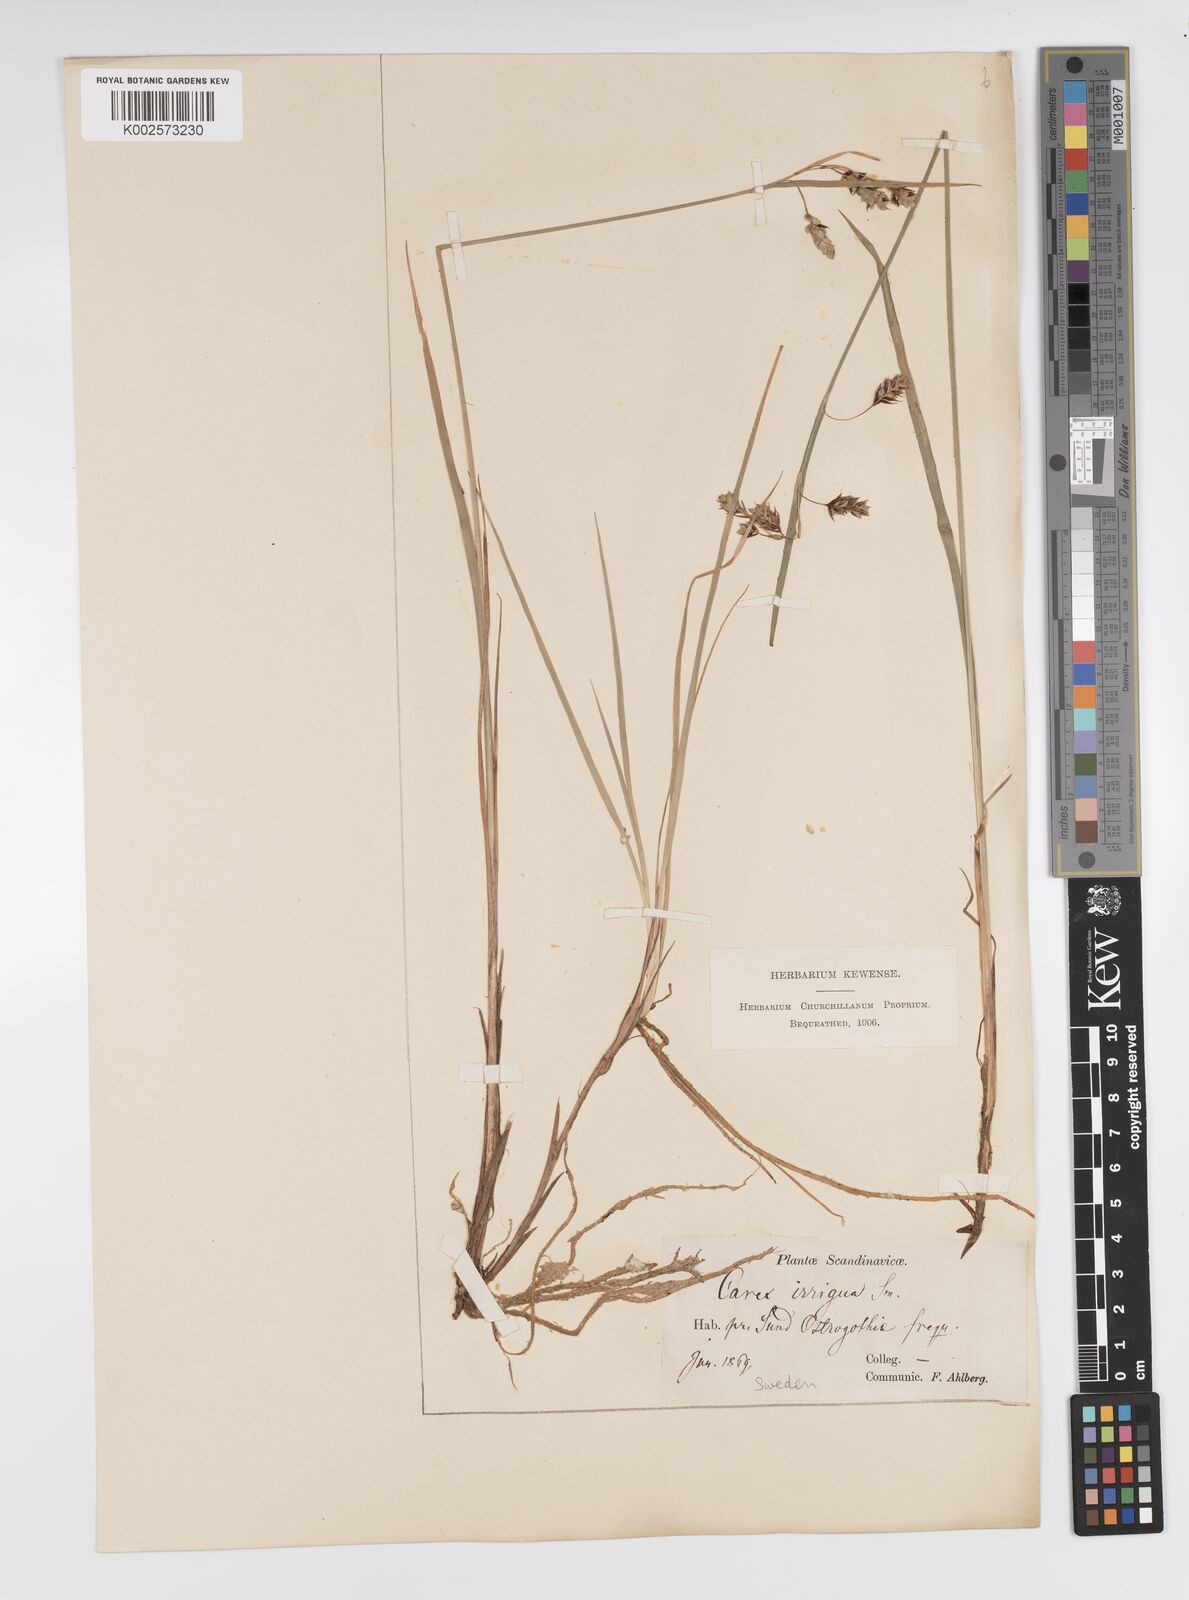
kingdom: Plantae
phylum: Tracheophyta
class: Liliopsida
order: Poales
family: Cyperaceae
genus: Carex
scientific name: Carex magellanica
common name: Bog sedge
